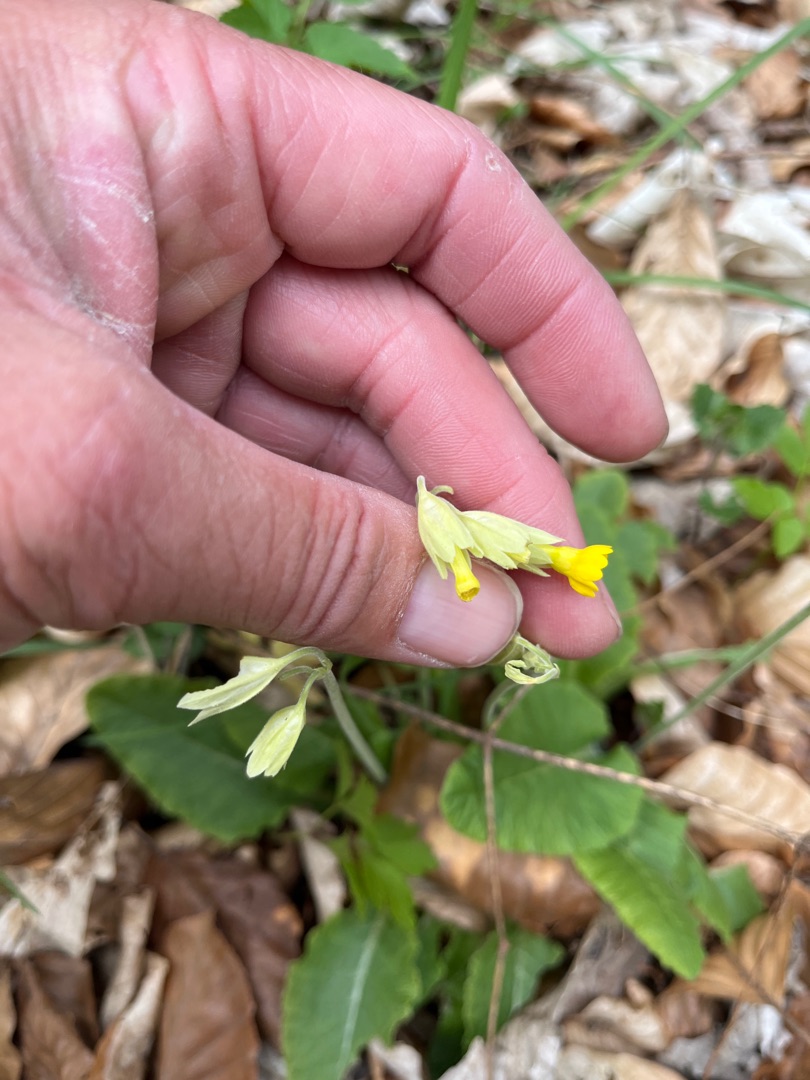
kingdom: Plantae
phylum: Tracheophyta
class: Magnoliopsida
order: Ericales
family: Primulaceae
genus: Primula
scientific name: Primula veris
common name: Hulkravet kodriver
